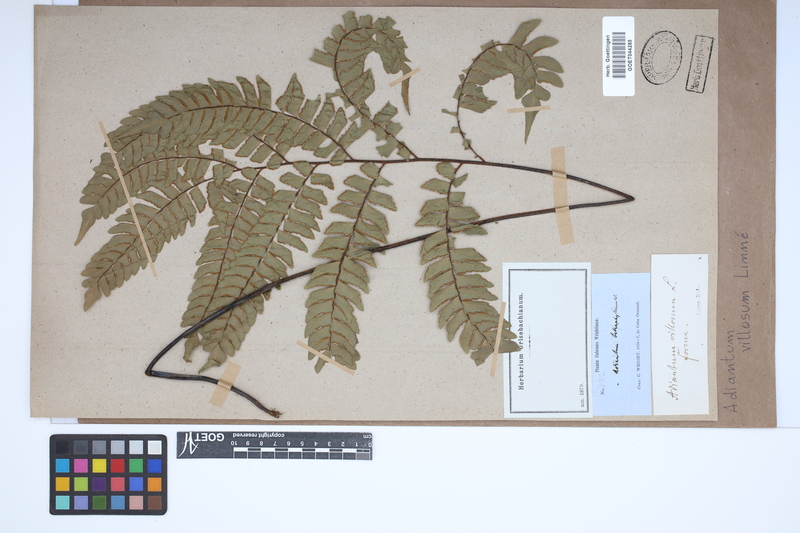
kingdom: Plantae
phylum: Tracheophyta
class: Polypodiopsida
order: Polypodiales
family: Pteridaceae
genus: Adiantum
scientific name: Adiantum villosum
